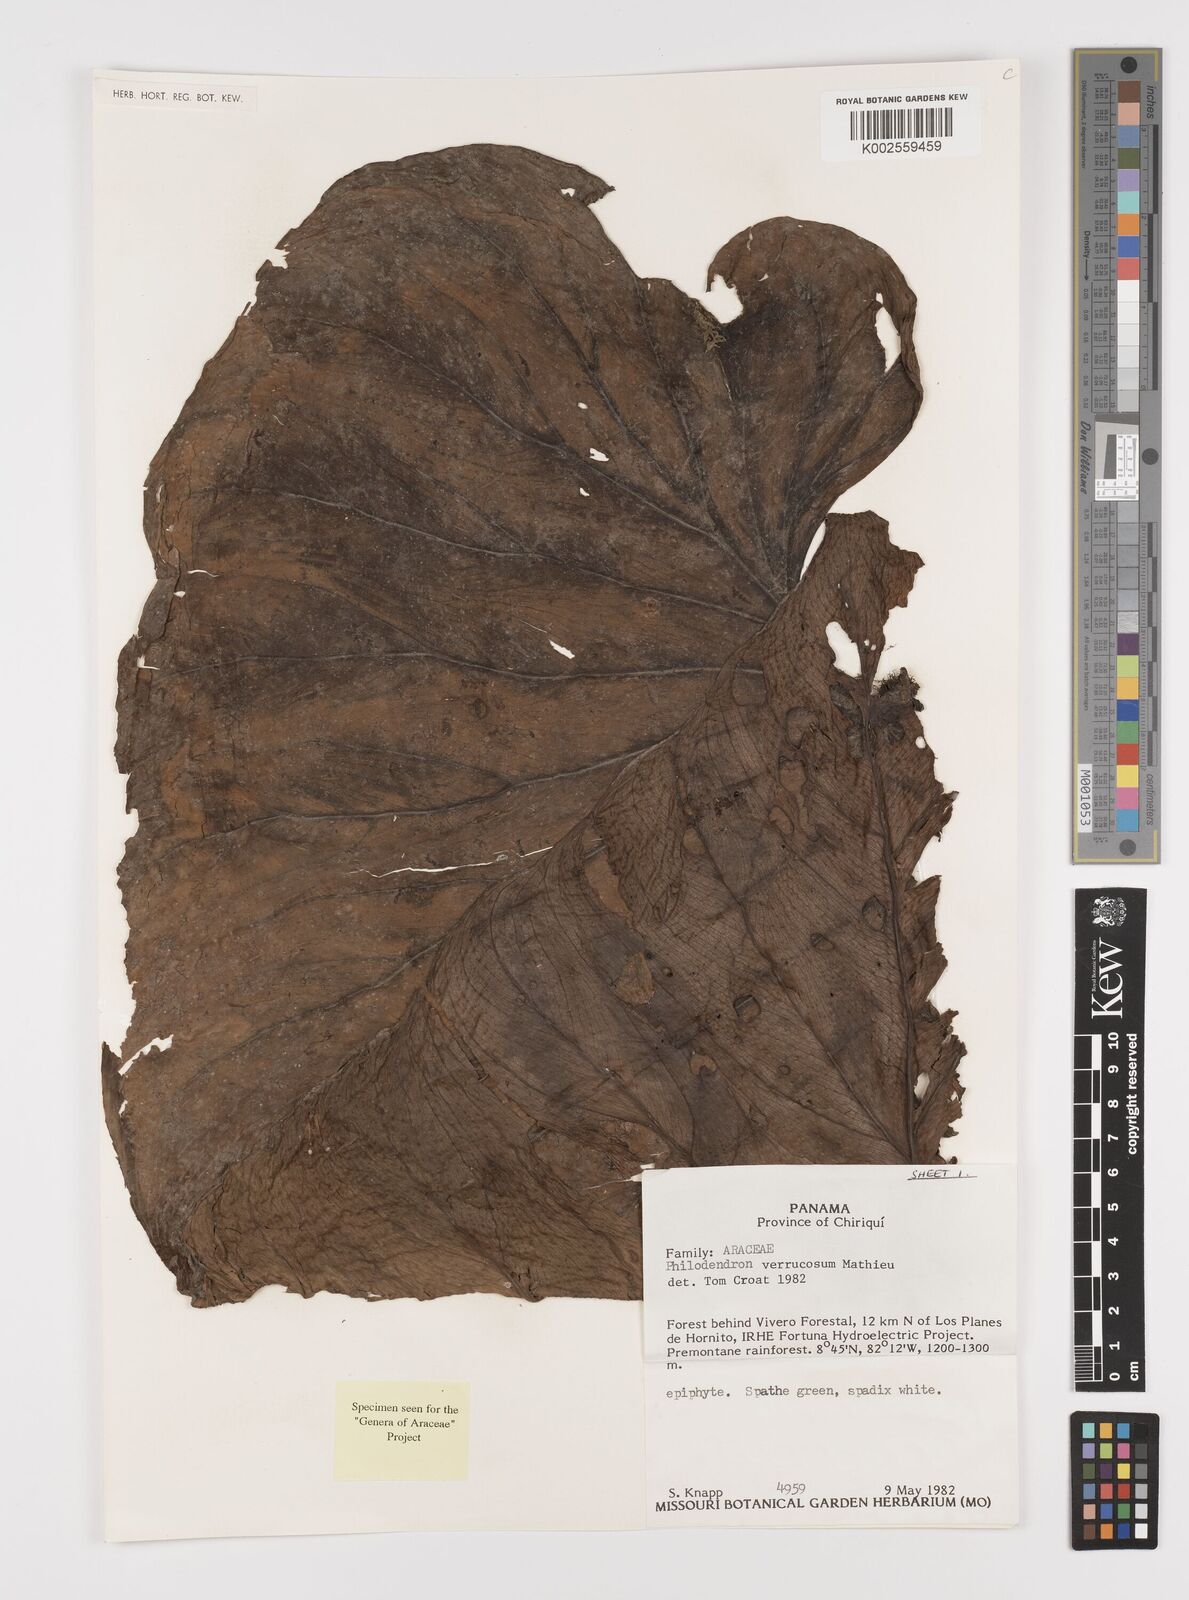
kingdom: Plantae
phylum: Tracheophyta
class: Liliopsida
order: Alismatales
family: Araceae
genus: Philodendron
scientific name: Philodendron verrucosum
